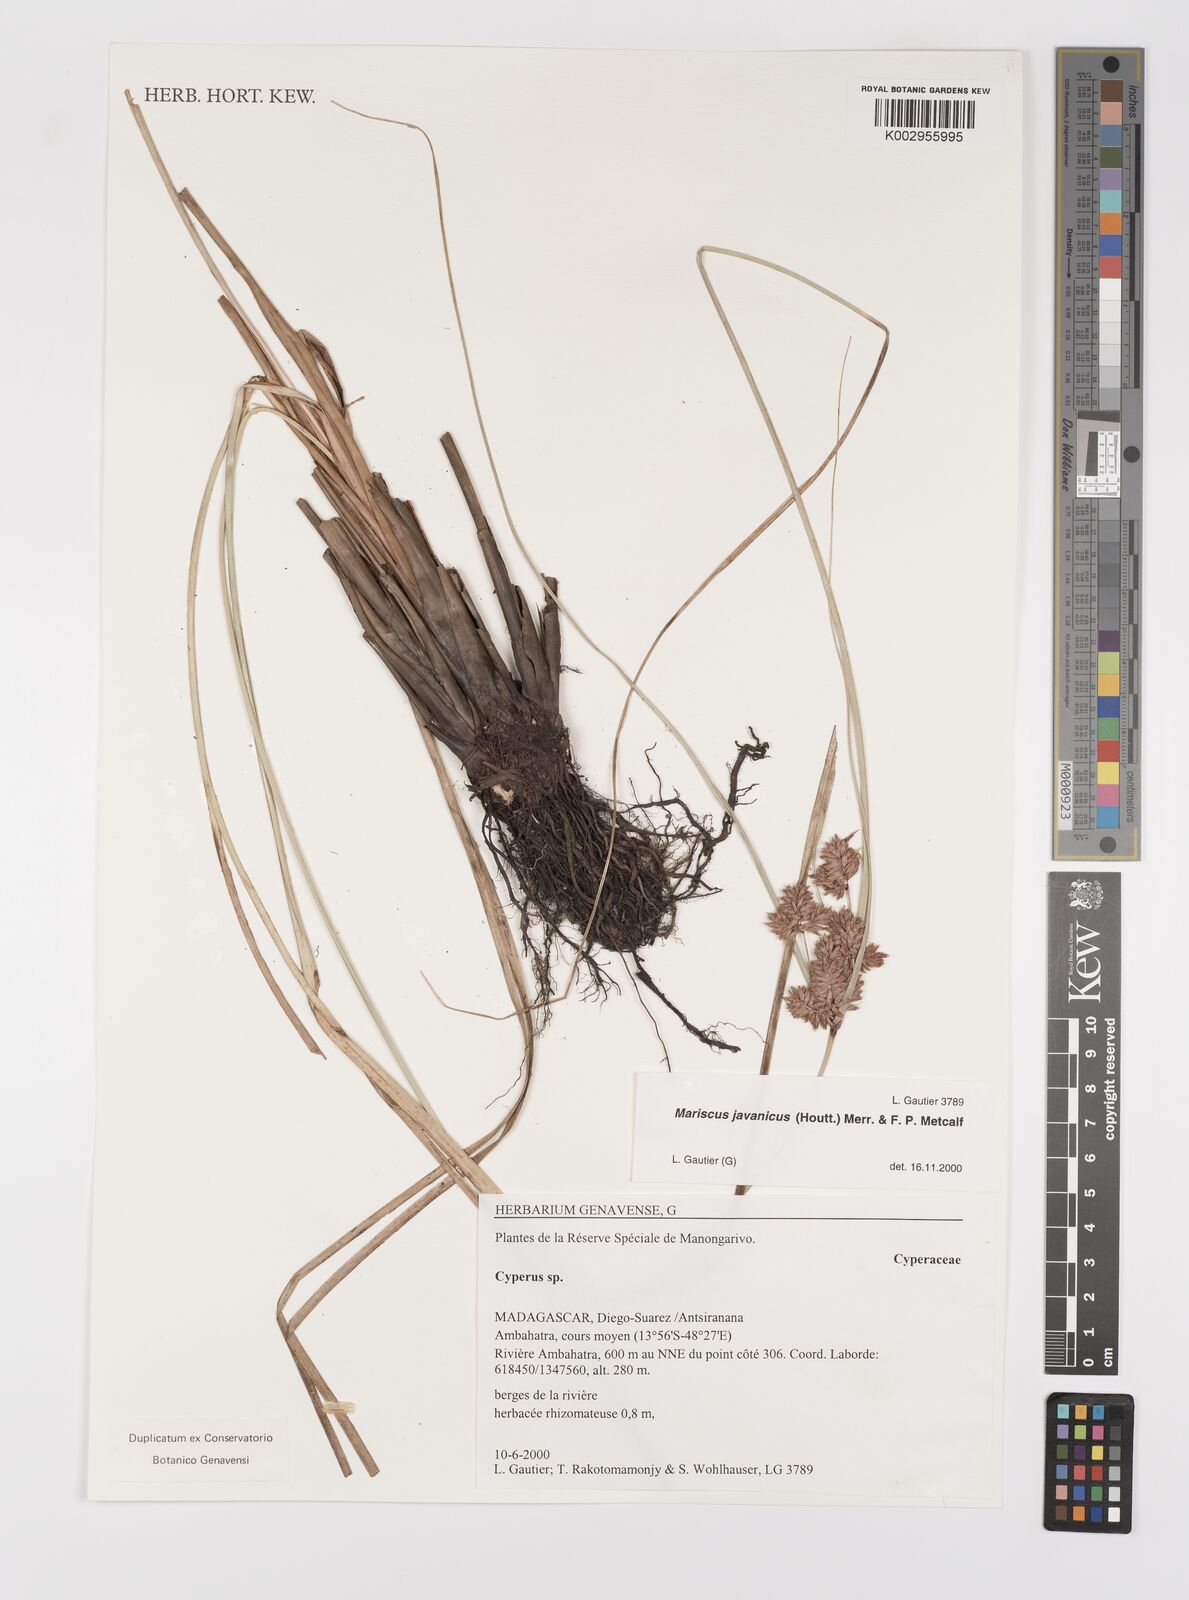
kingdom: Plantae
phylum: Tracheophyta
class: Liliopsida
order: Poales
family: Cyperaceae
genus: Cyperus
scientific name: Cyperus javanicus
